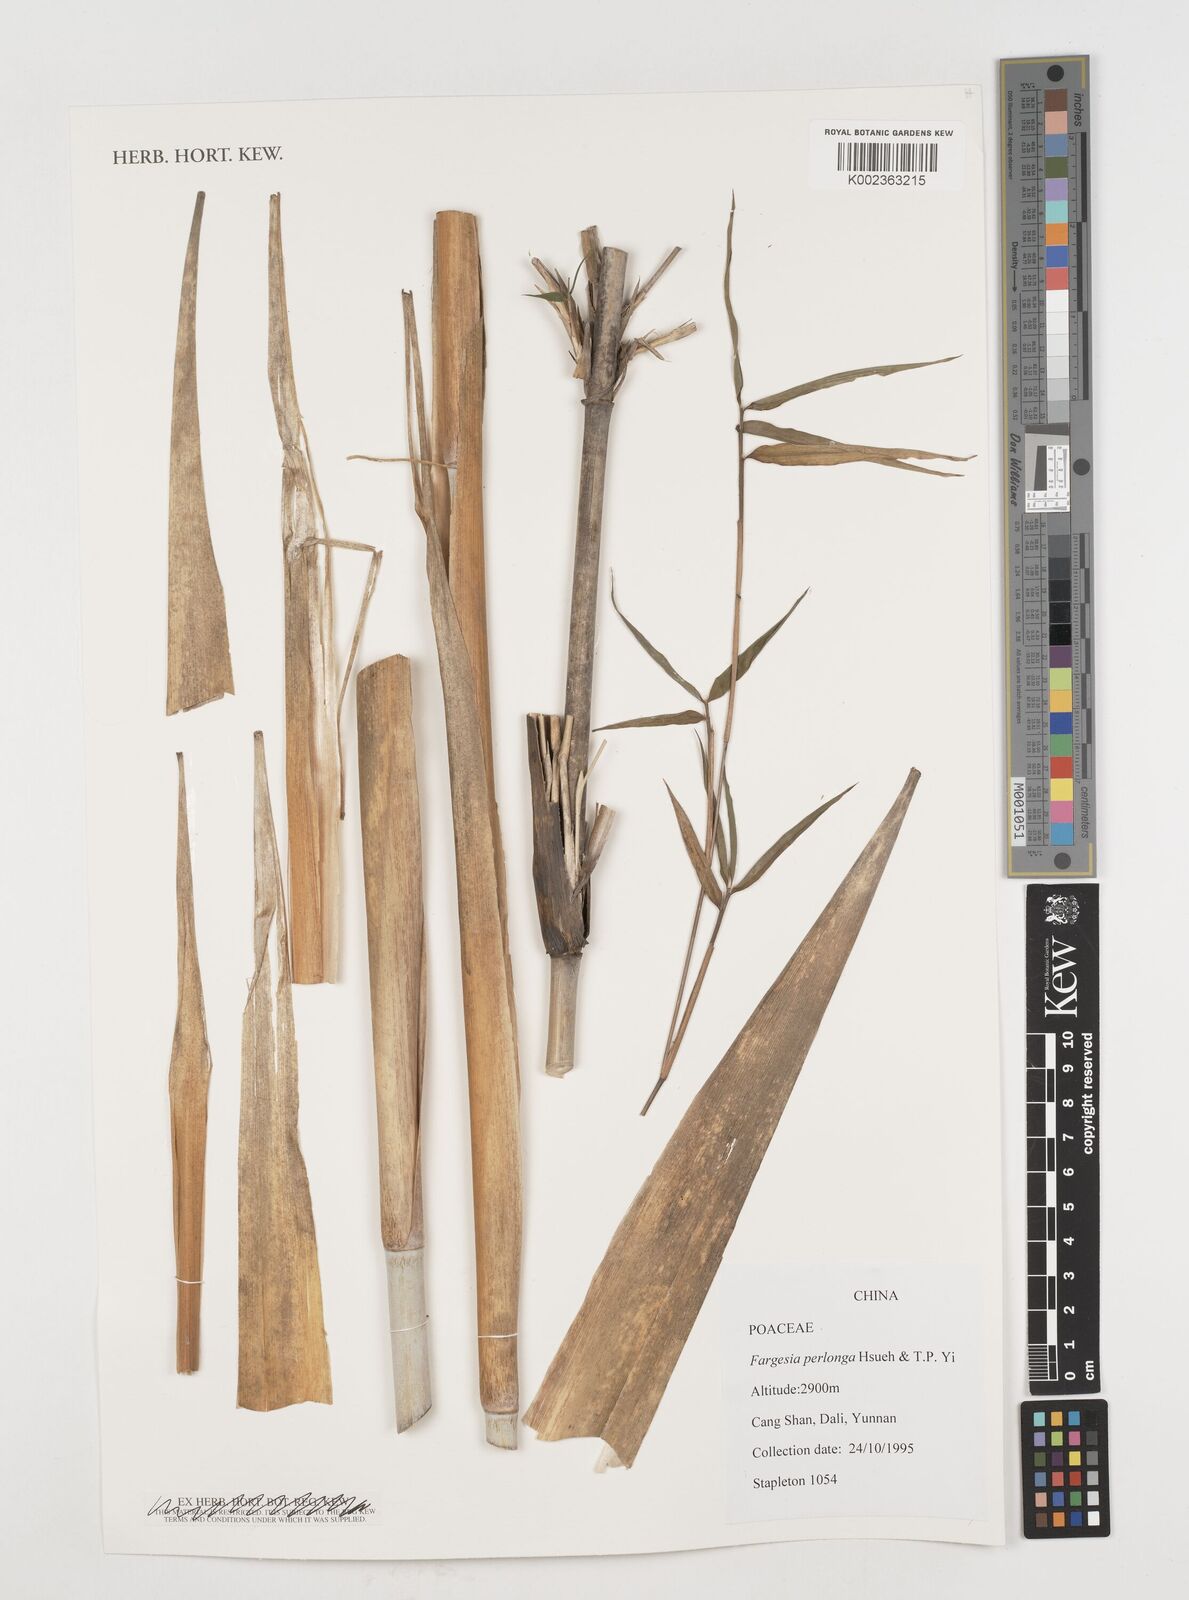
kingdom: Plantae
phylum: Tracheophyta
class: Liliopsida
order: Poales
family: Poaceae
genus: Borinda
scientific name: Borinda perlonga
